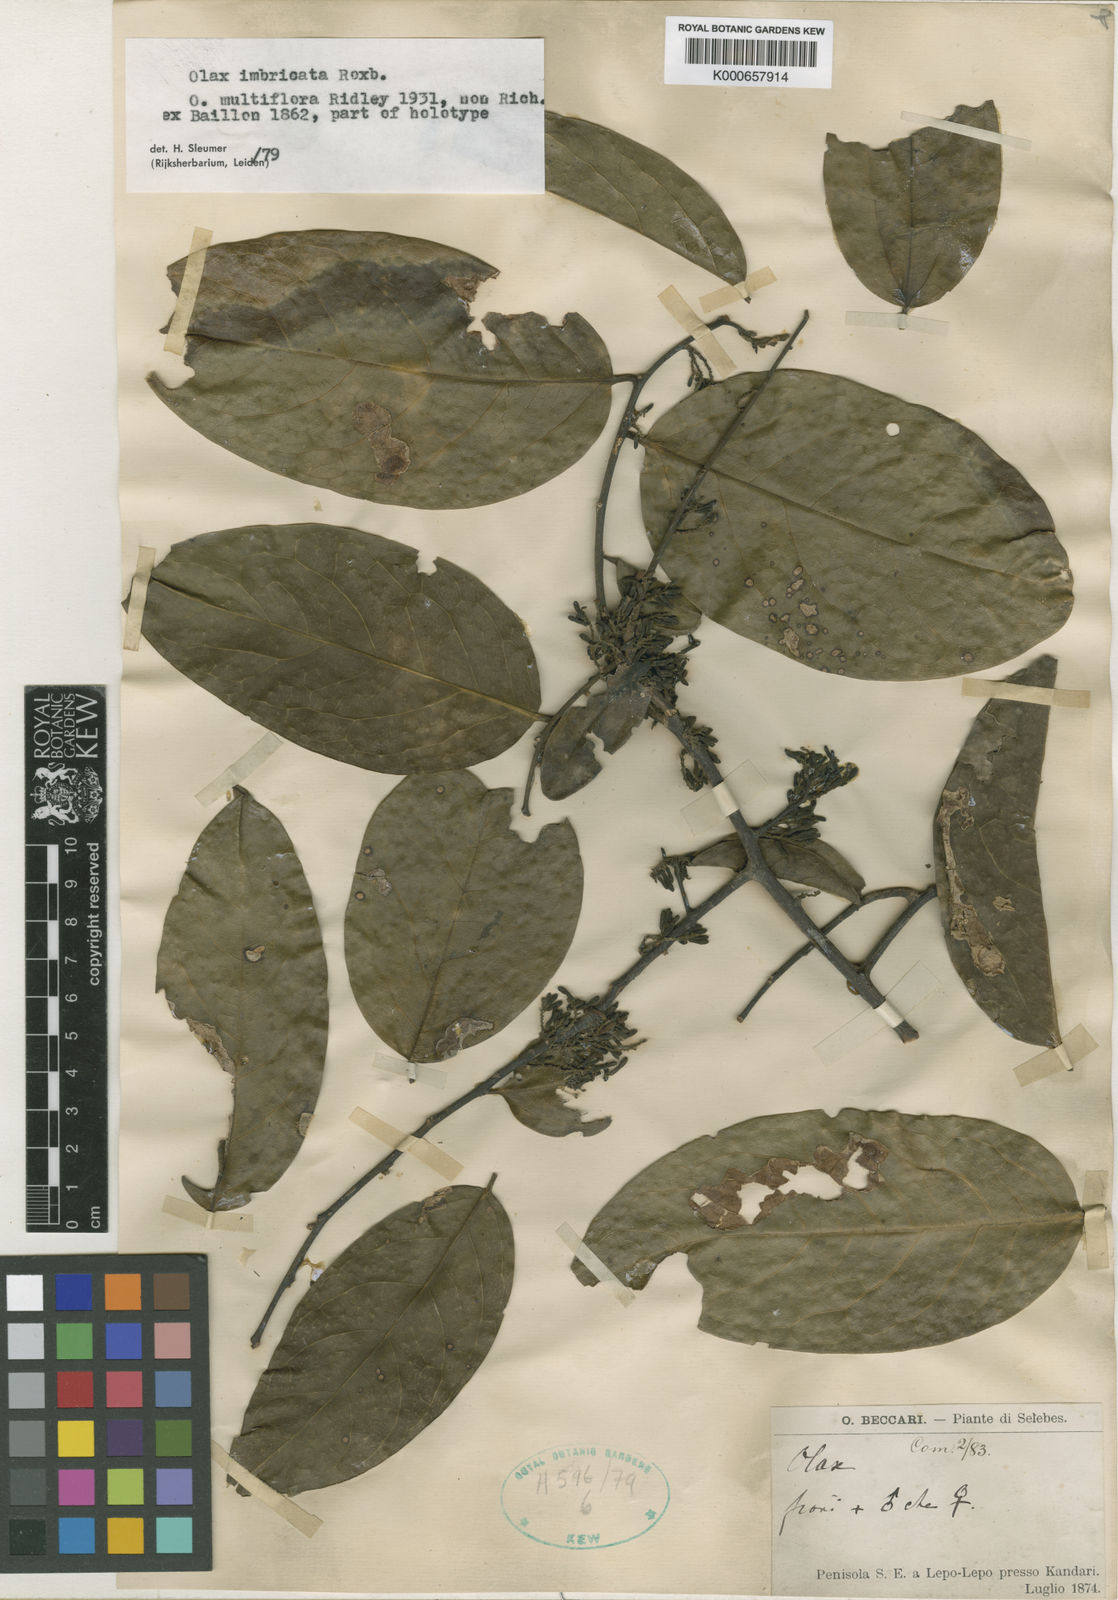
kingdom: Plantae
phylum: Tracheophyta
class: Magnoliopsida
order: Santalales
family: Olacaceae
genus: Olax
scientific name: Olax imbricata
